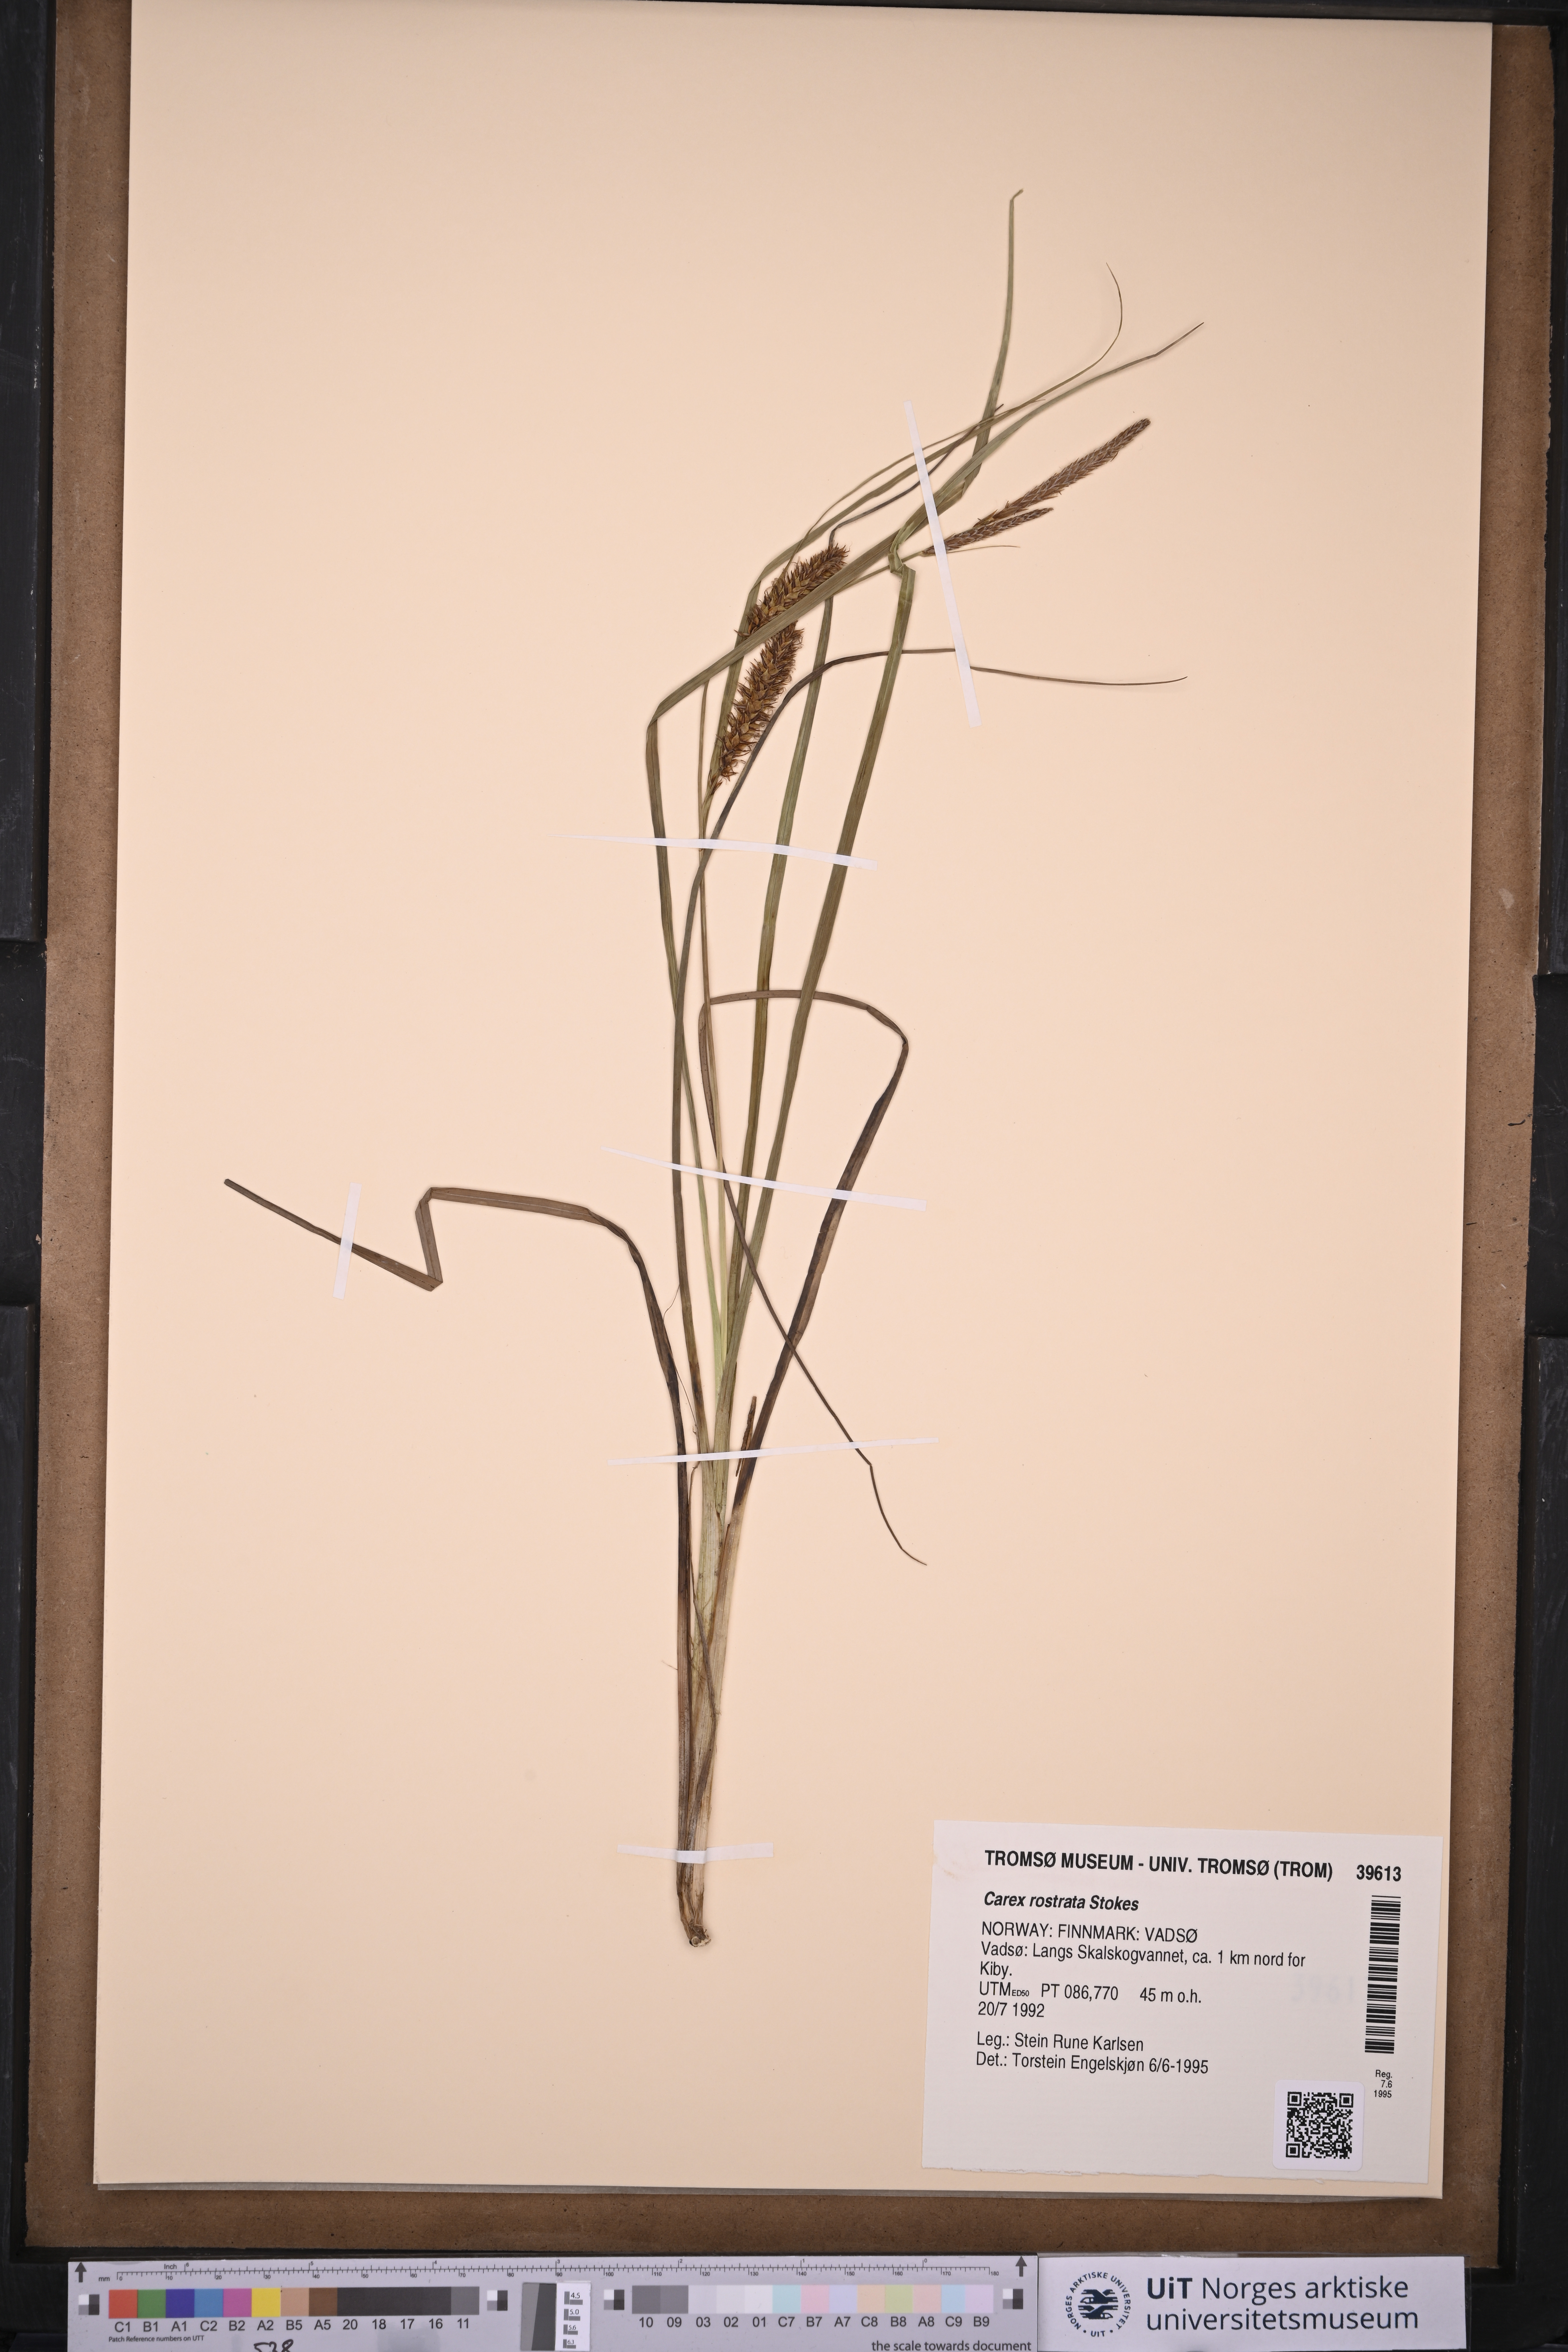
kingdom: Plantae
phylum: Tracheophyta
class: Liliopsida
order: Poales
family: Cyperaceae
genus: Carex
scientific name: Carex rostrata
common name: Bottle sedge
